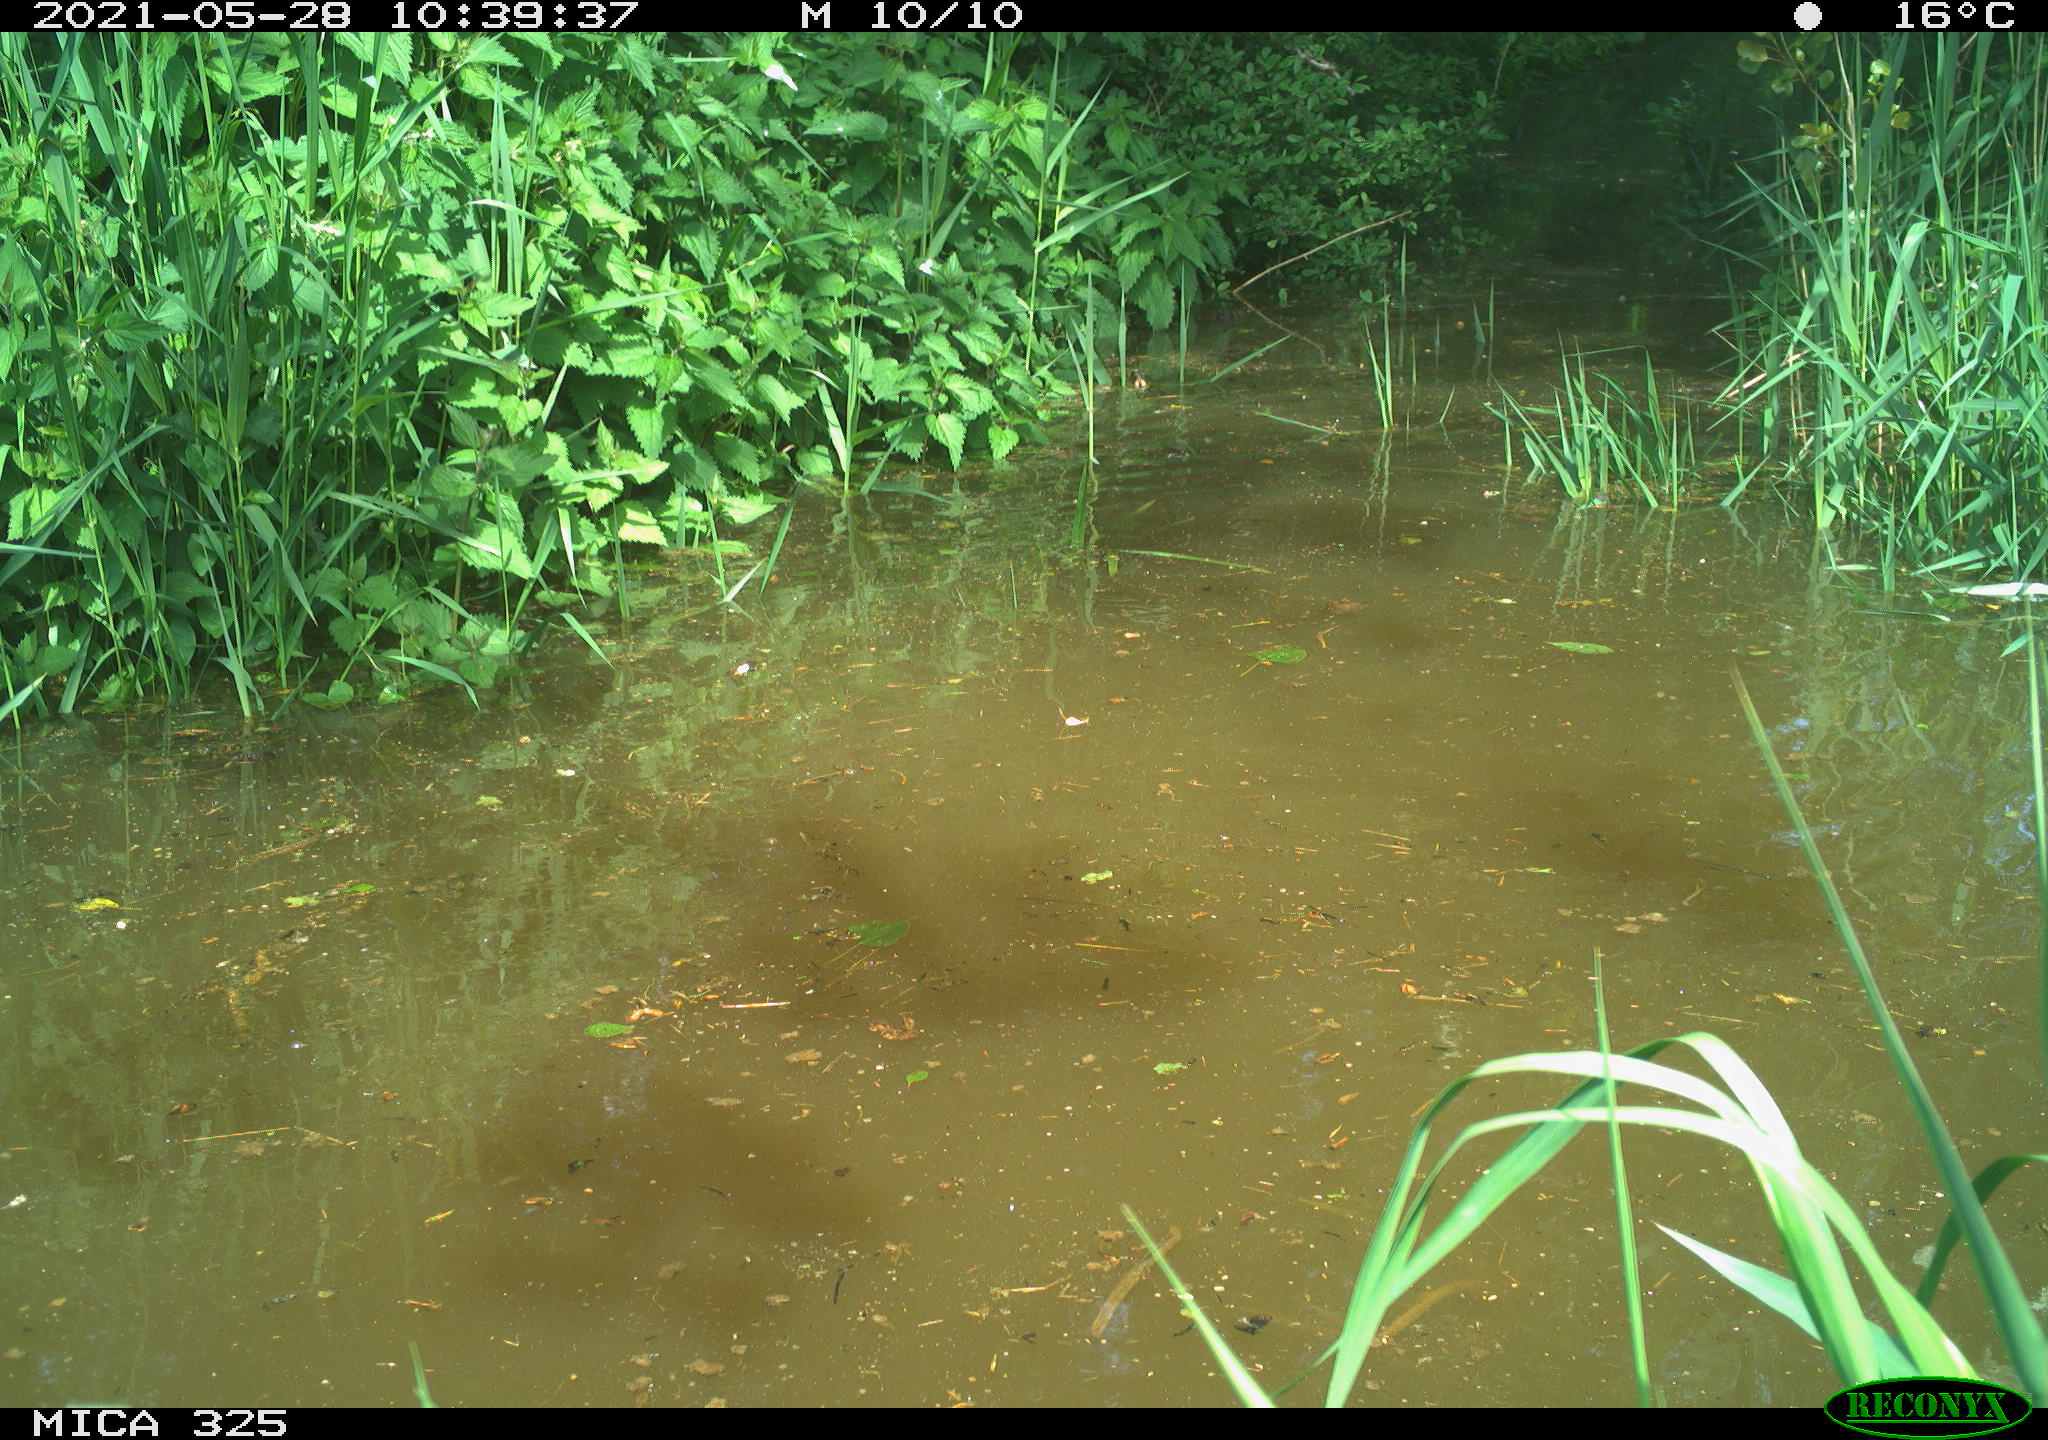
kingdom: Animalia
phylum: Chordata
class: Mammalia
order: Rodentia
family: Cricetidae
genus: Ondatra
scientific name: Ondatra zibethicus
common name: Muskrat
